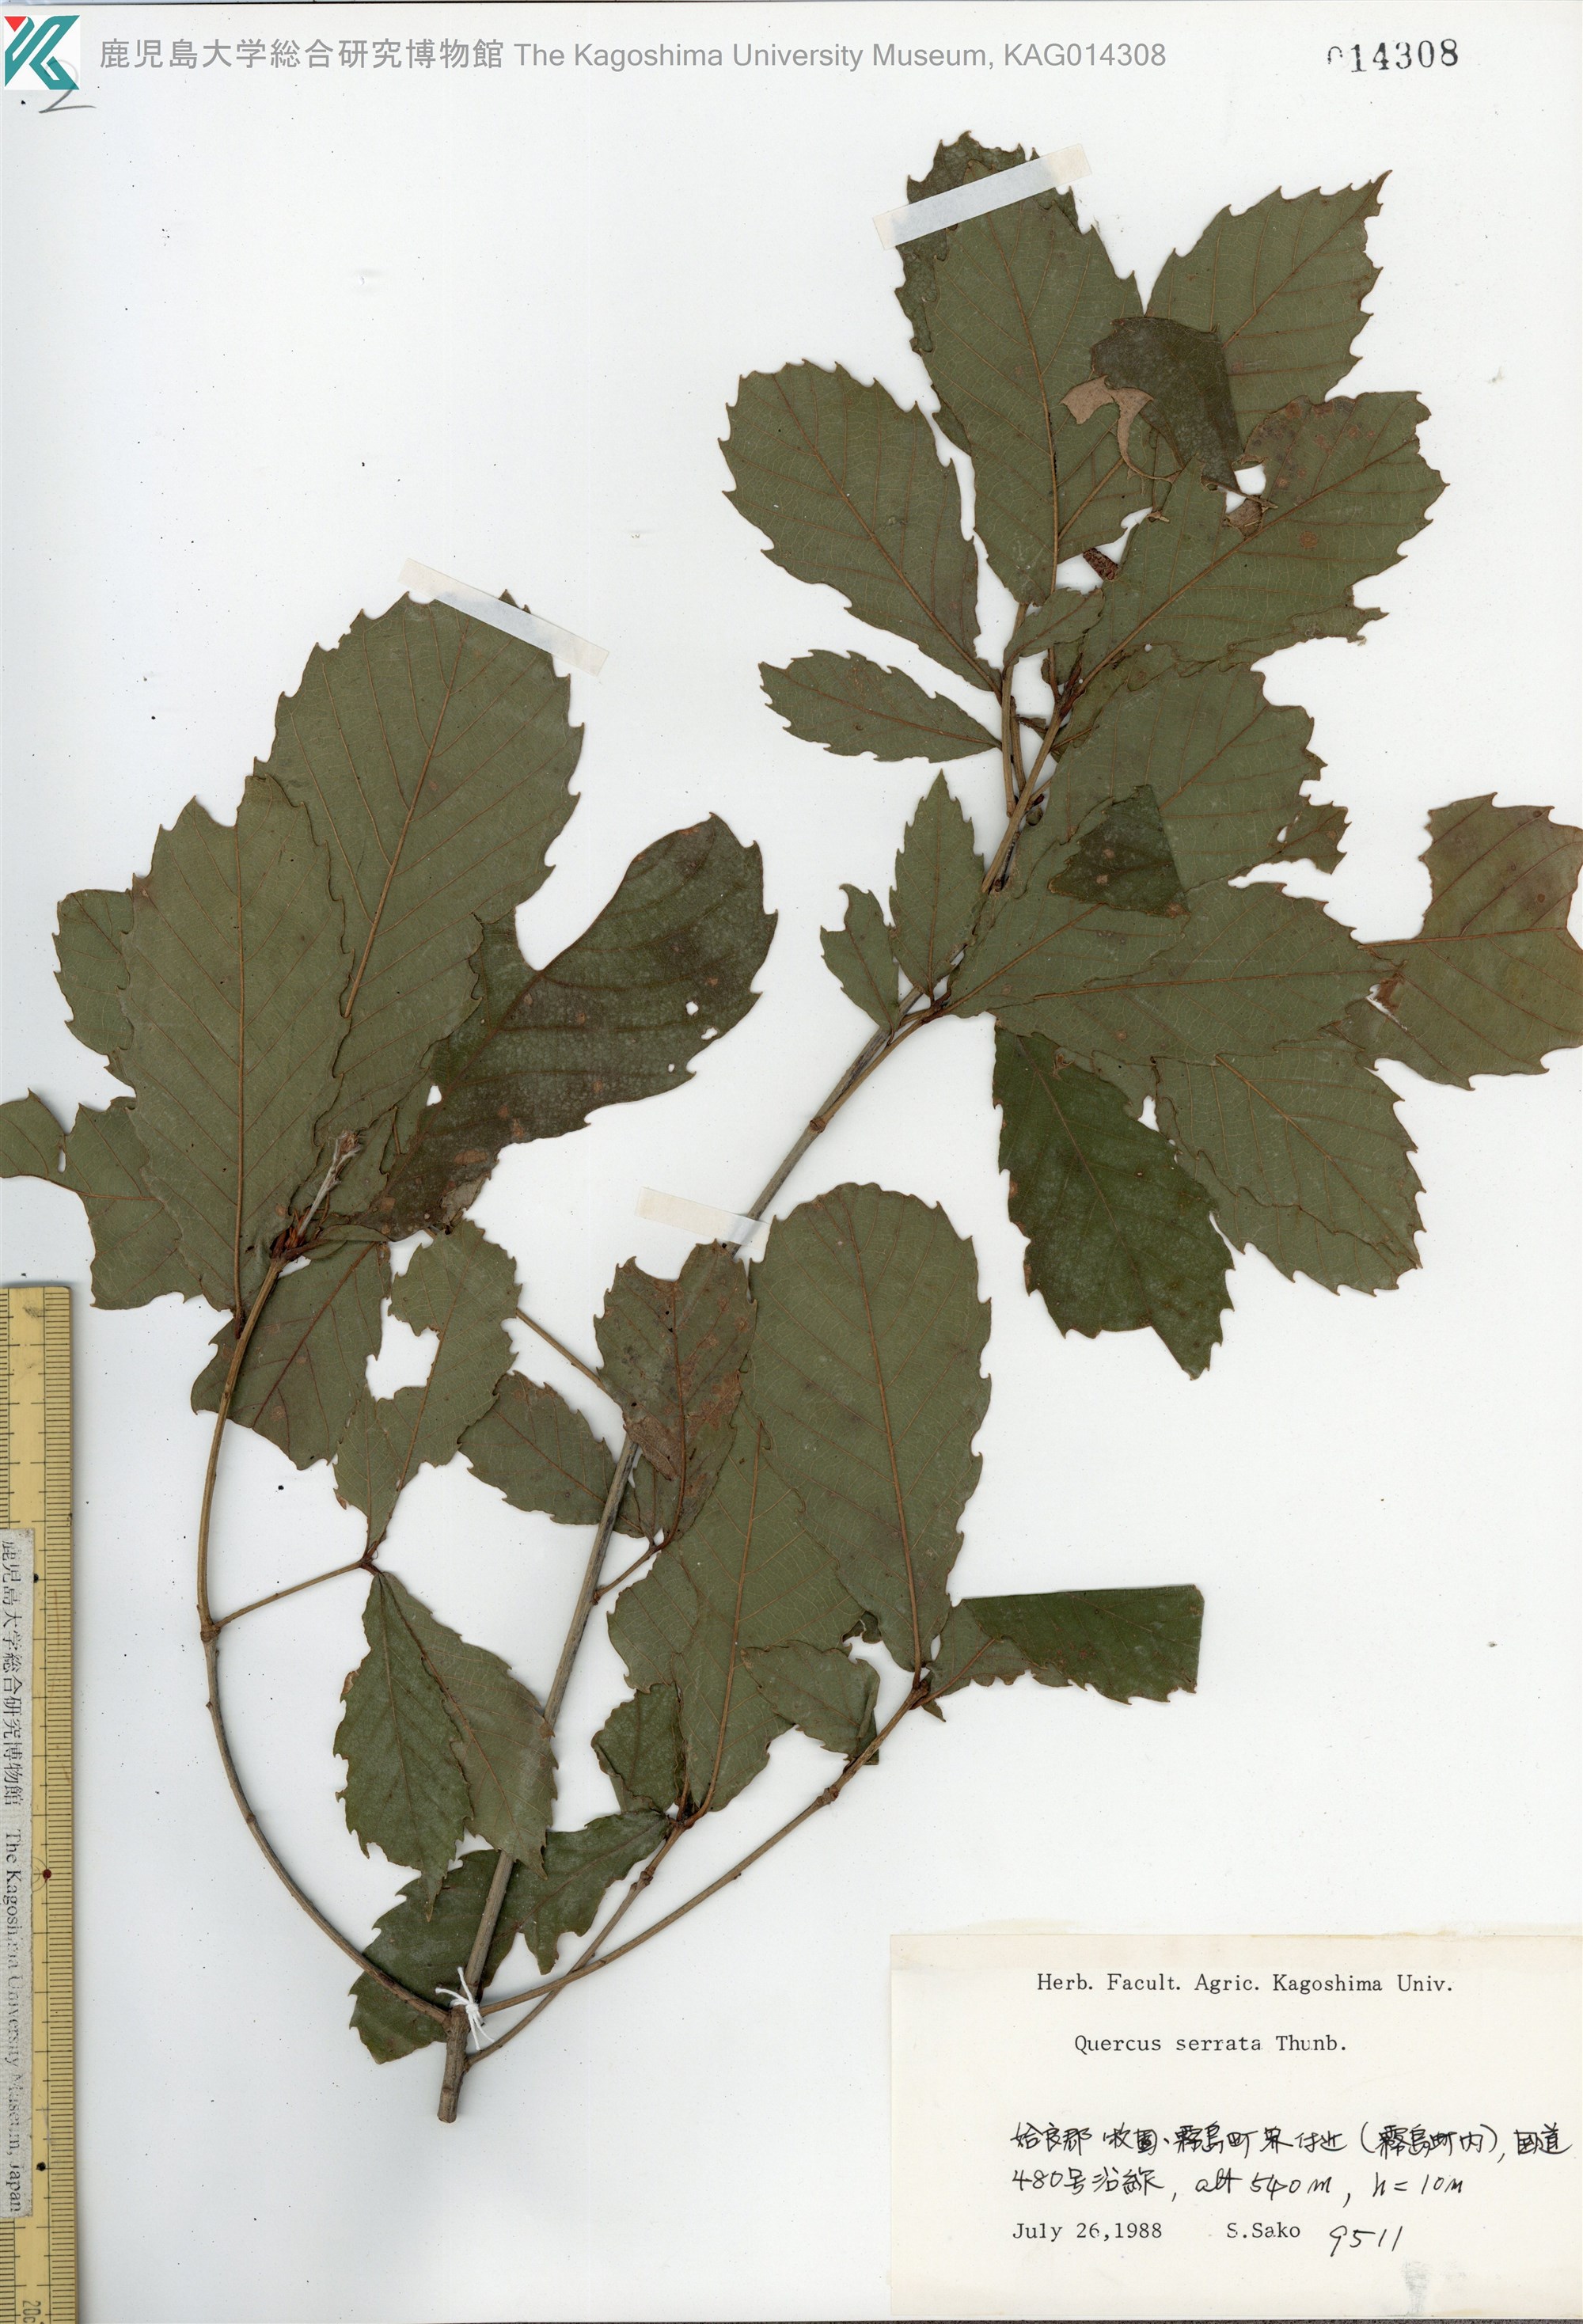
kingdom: Plantae
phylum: Tracheophyta
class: Magnoliopsida
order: Fagales
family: Fagaceae
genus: Quercus
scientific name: Quercus serrata
